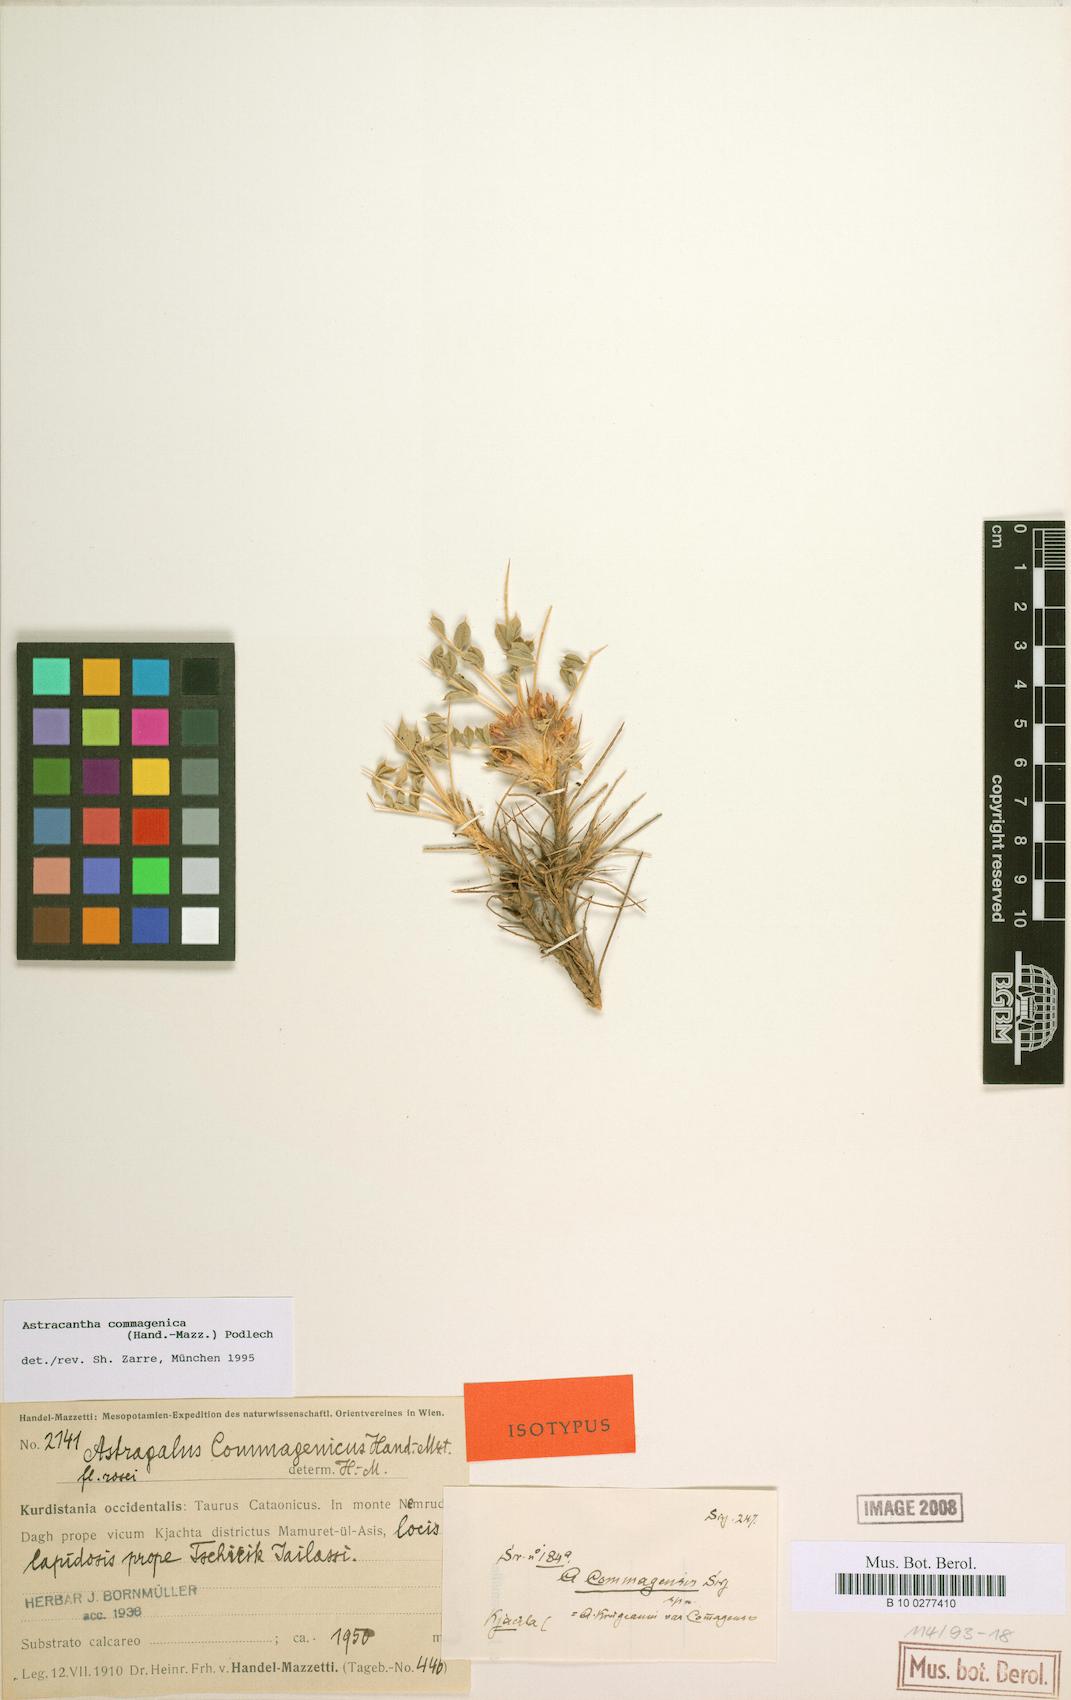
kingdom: Plantae
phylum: Tracheophyta
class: Magnoliopsida
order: Fabales
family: Fabaceae
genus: Astragalus
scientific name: Astragalus commagenicus
